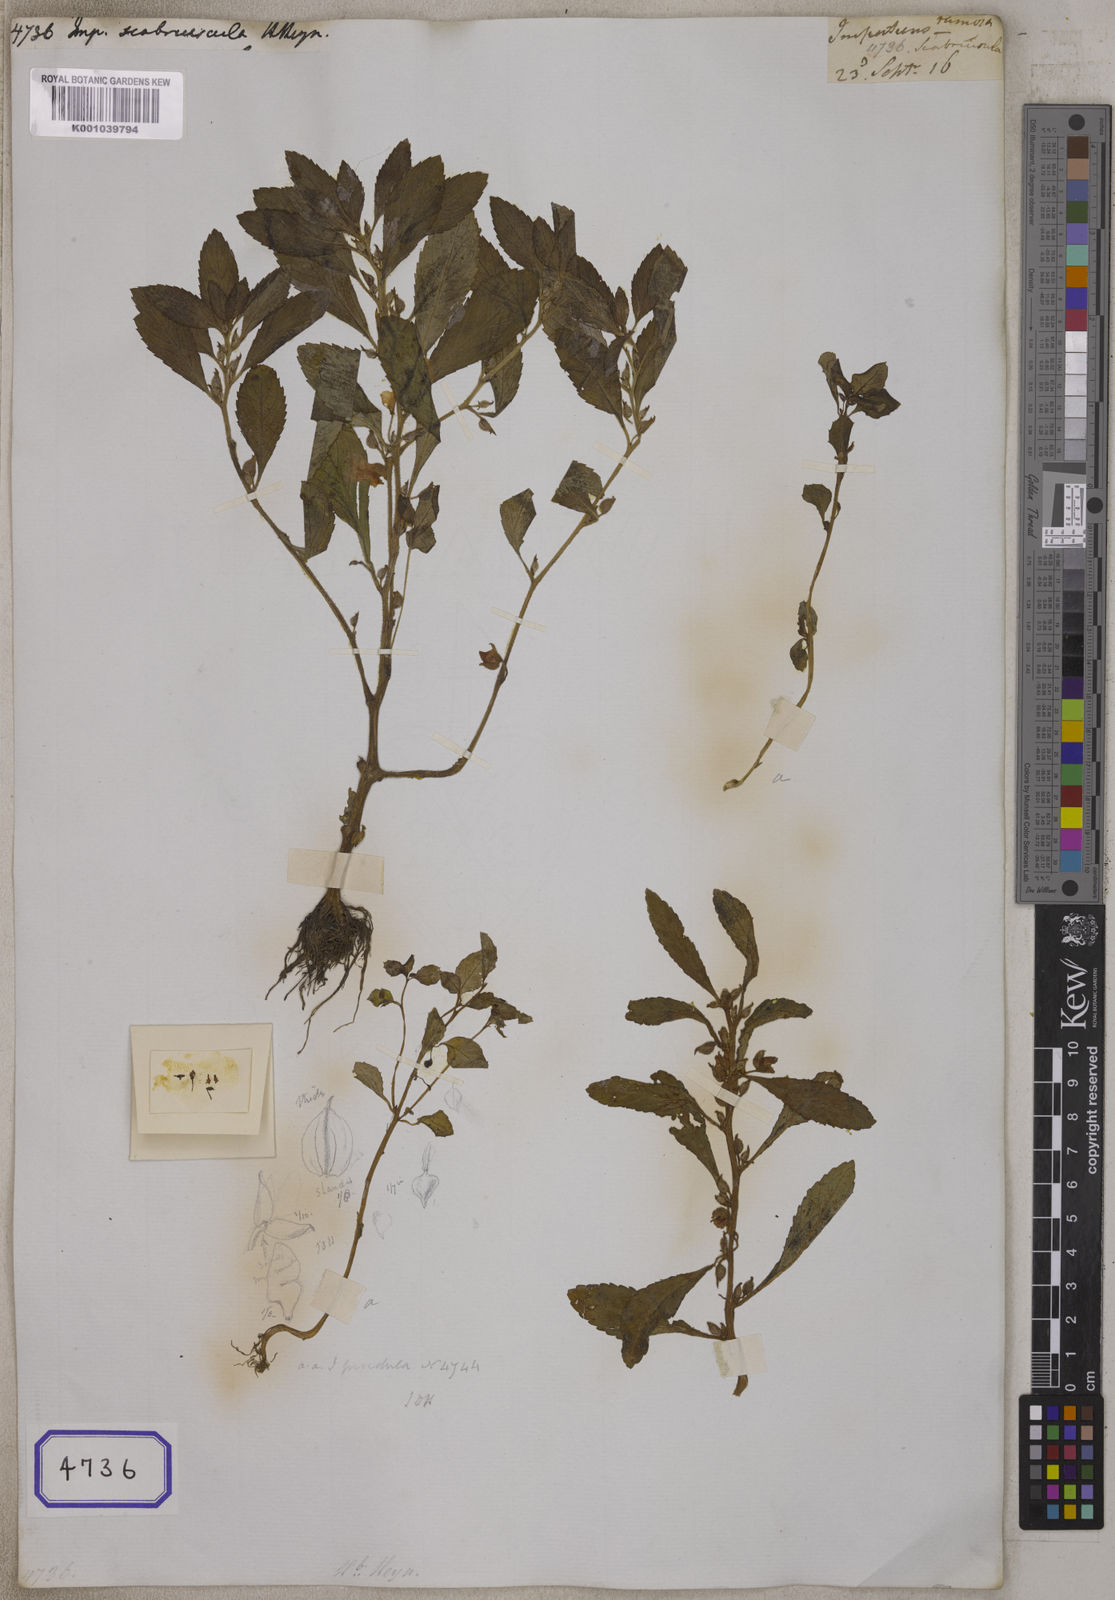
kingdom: Plantae
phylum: Tracheophyta
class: Magnoliopsida
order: Ericales
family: Balsaminaceae
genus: Impatiens
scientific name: Impatiens
